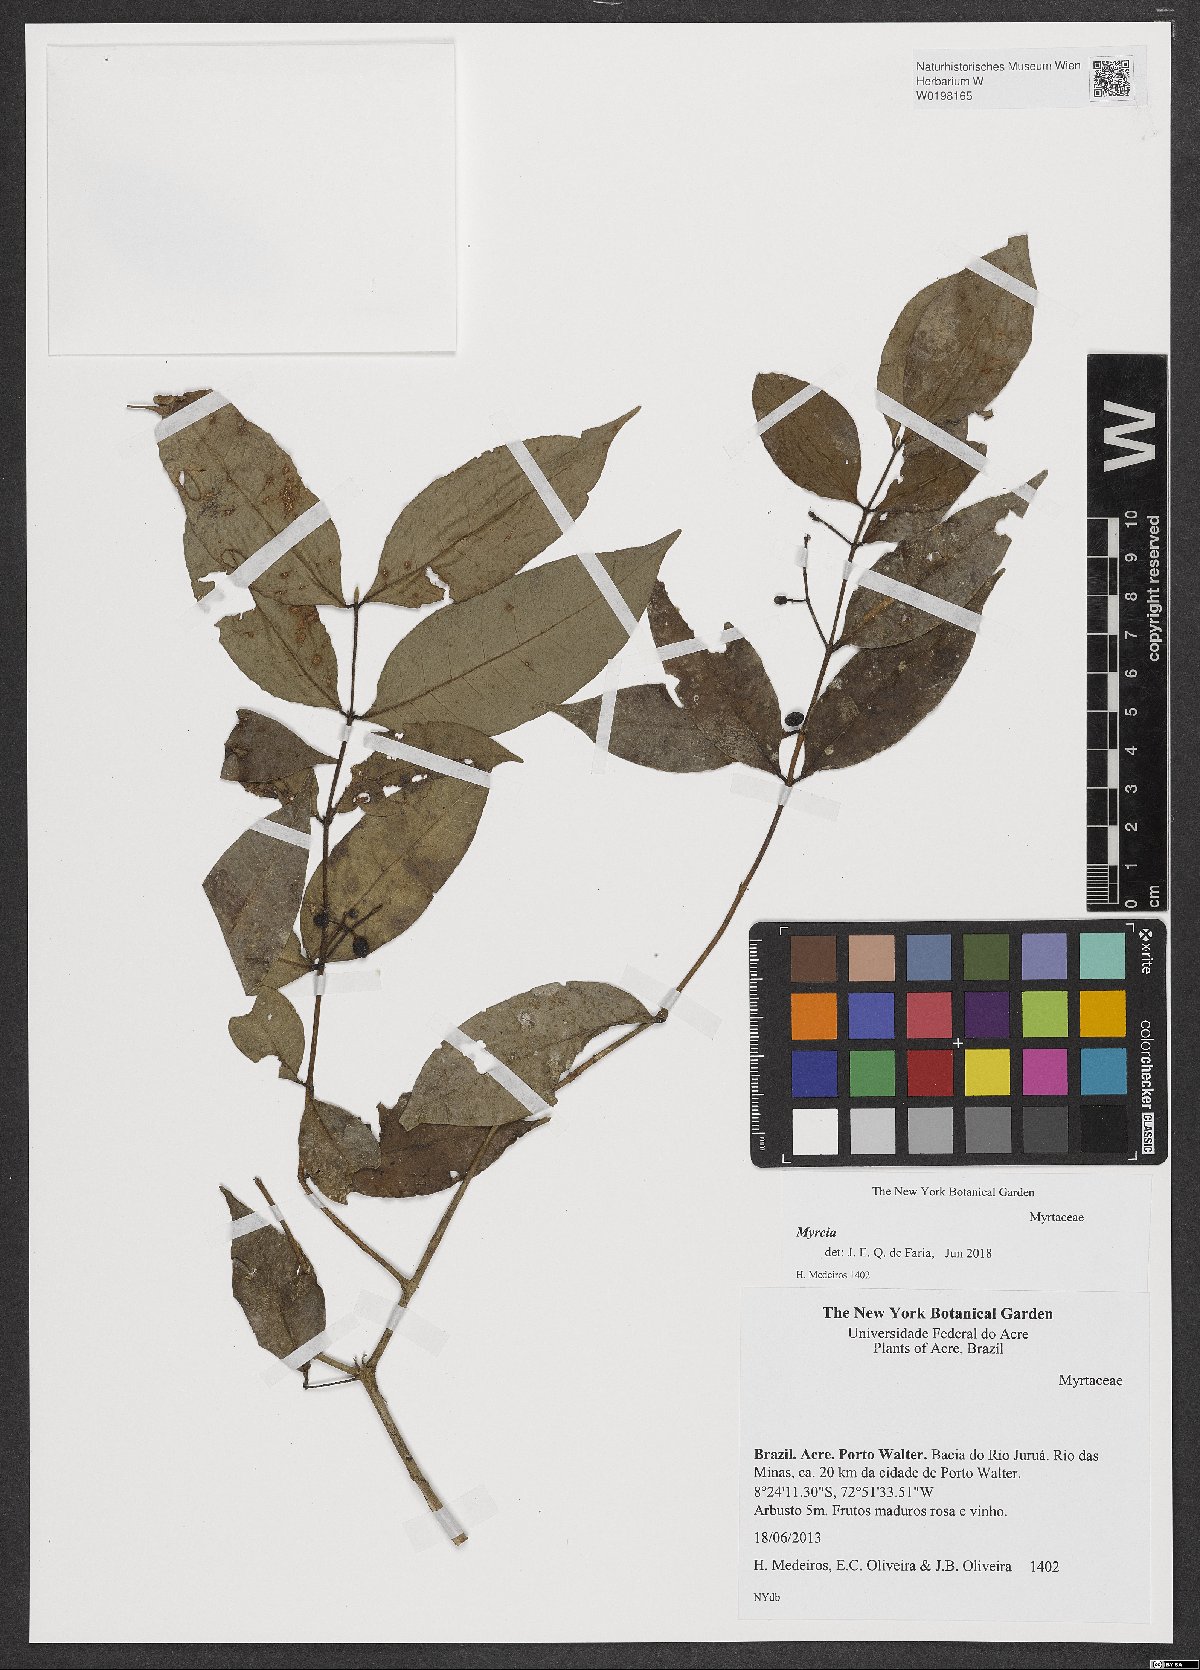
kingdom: Plantae
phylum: Tracheophyta
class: Magnoliopsida
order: Myrtales
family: Myrtaceae
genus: Myrcia
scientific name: Myrcia
